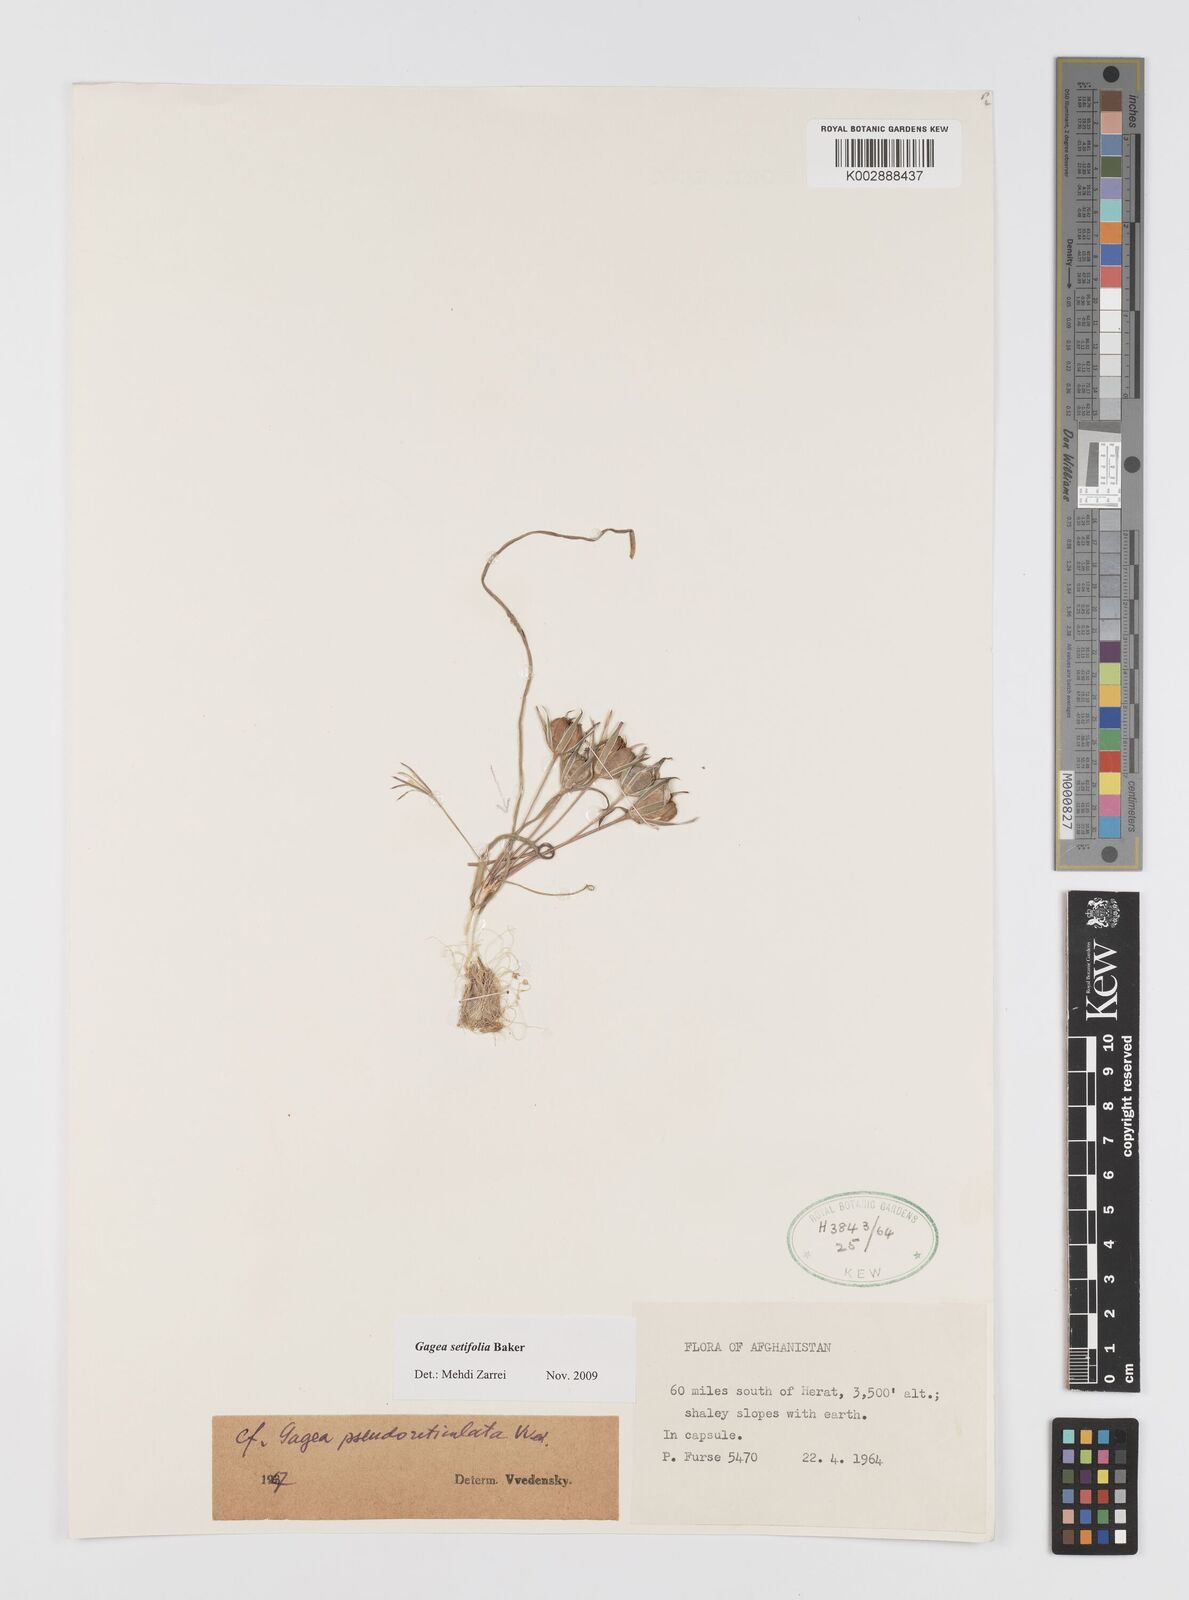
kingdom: Plantae
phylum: Tracheophyta
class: Liliopsida
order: Liliales
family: Liliaceae
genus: Gagea
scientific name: Gagea setifolia
